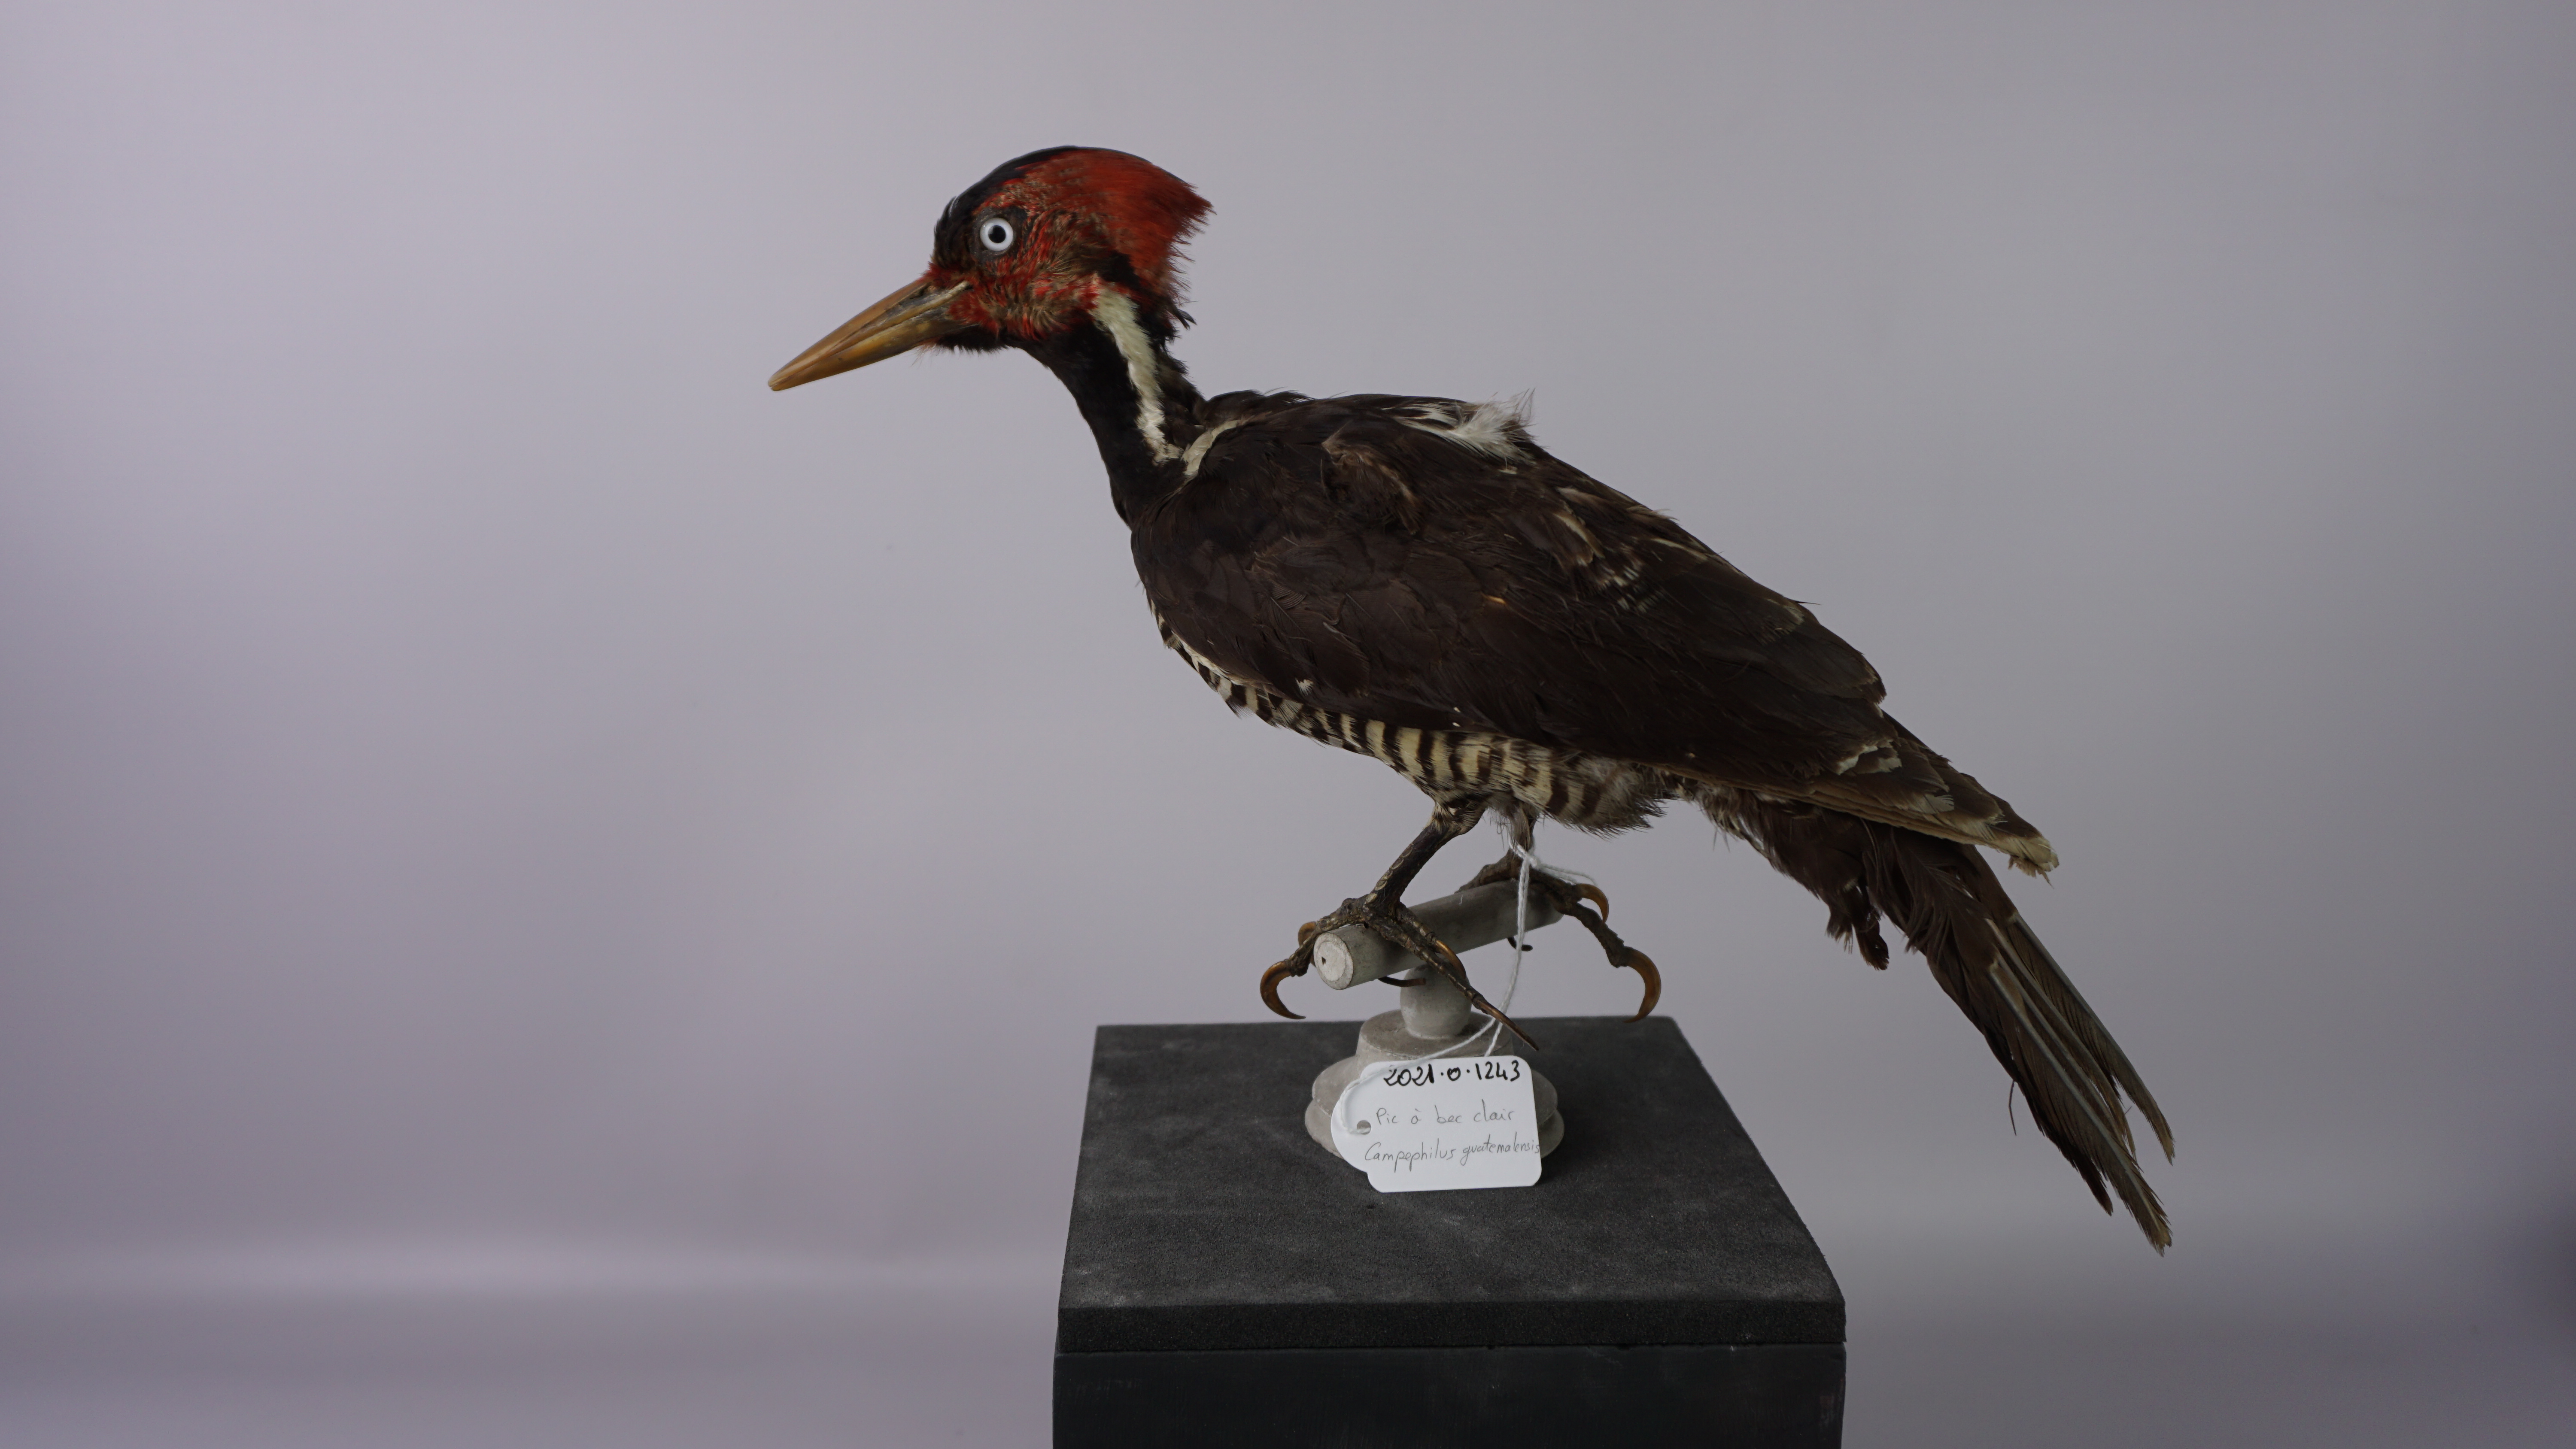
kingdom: Animalia
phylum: Chordata
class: Aves
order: Piciformes
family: Picidae
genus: Campephilus
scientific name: Campephilus guatemalensis
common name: Pale-billed woodpecker
